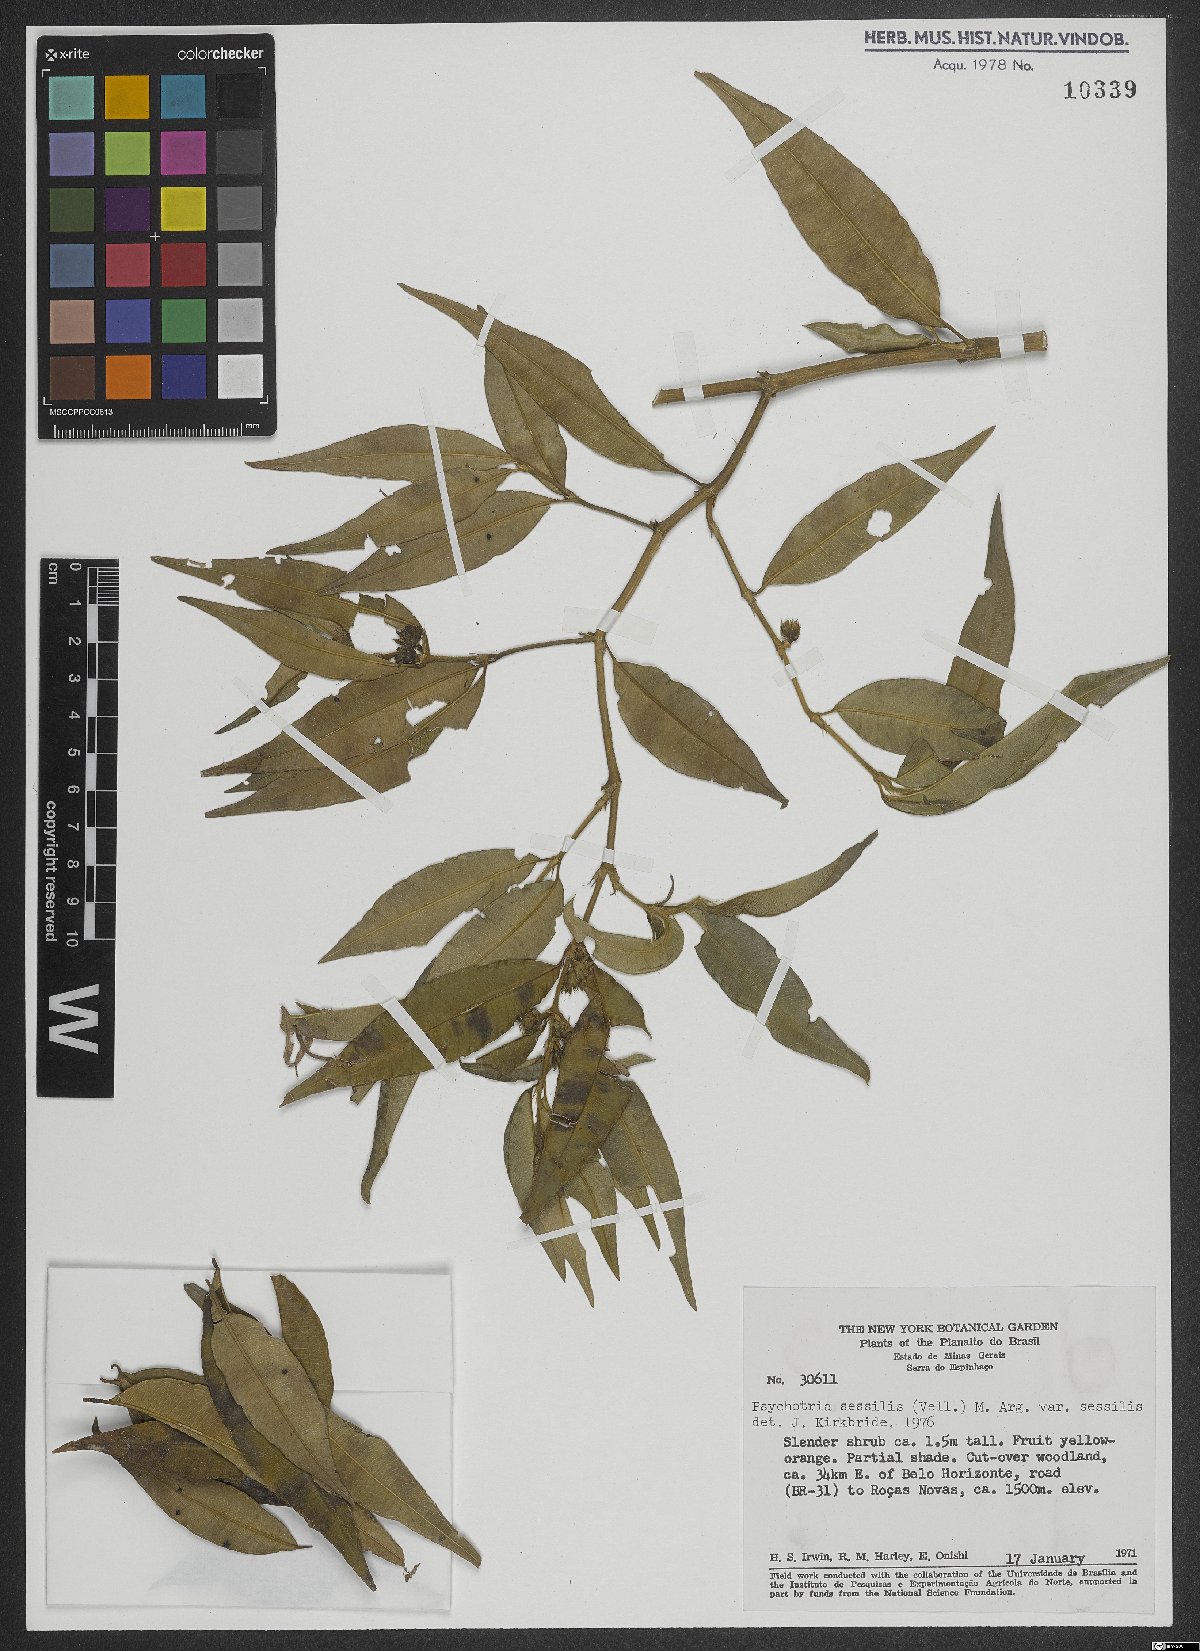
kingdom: Plantae
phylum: Tracheophyta
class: Magnoliopsida
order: Gentianales
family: Rubiaceae
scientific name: Rubiaceae
